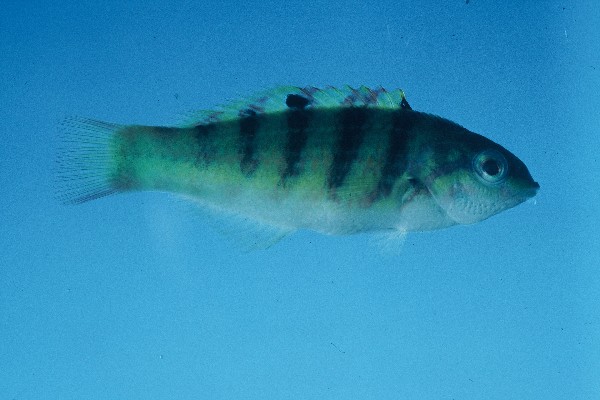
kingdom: Animalia
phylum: Chordata
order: Perciformes
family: Labridae
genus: Thalassoma
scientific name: Thalassoma hardwicke
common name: Sixbar wrasse
